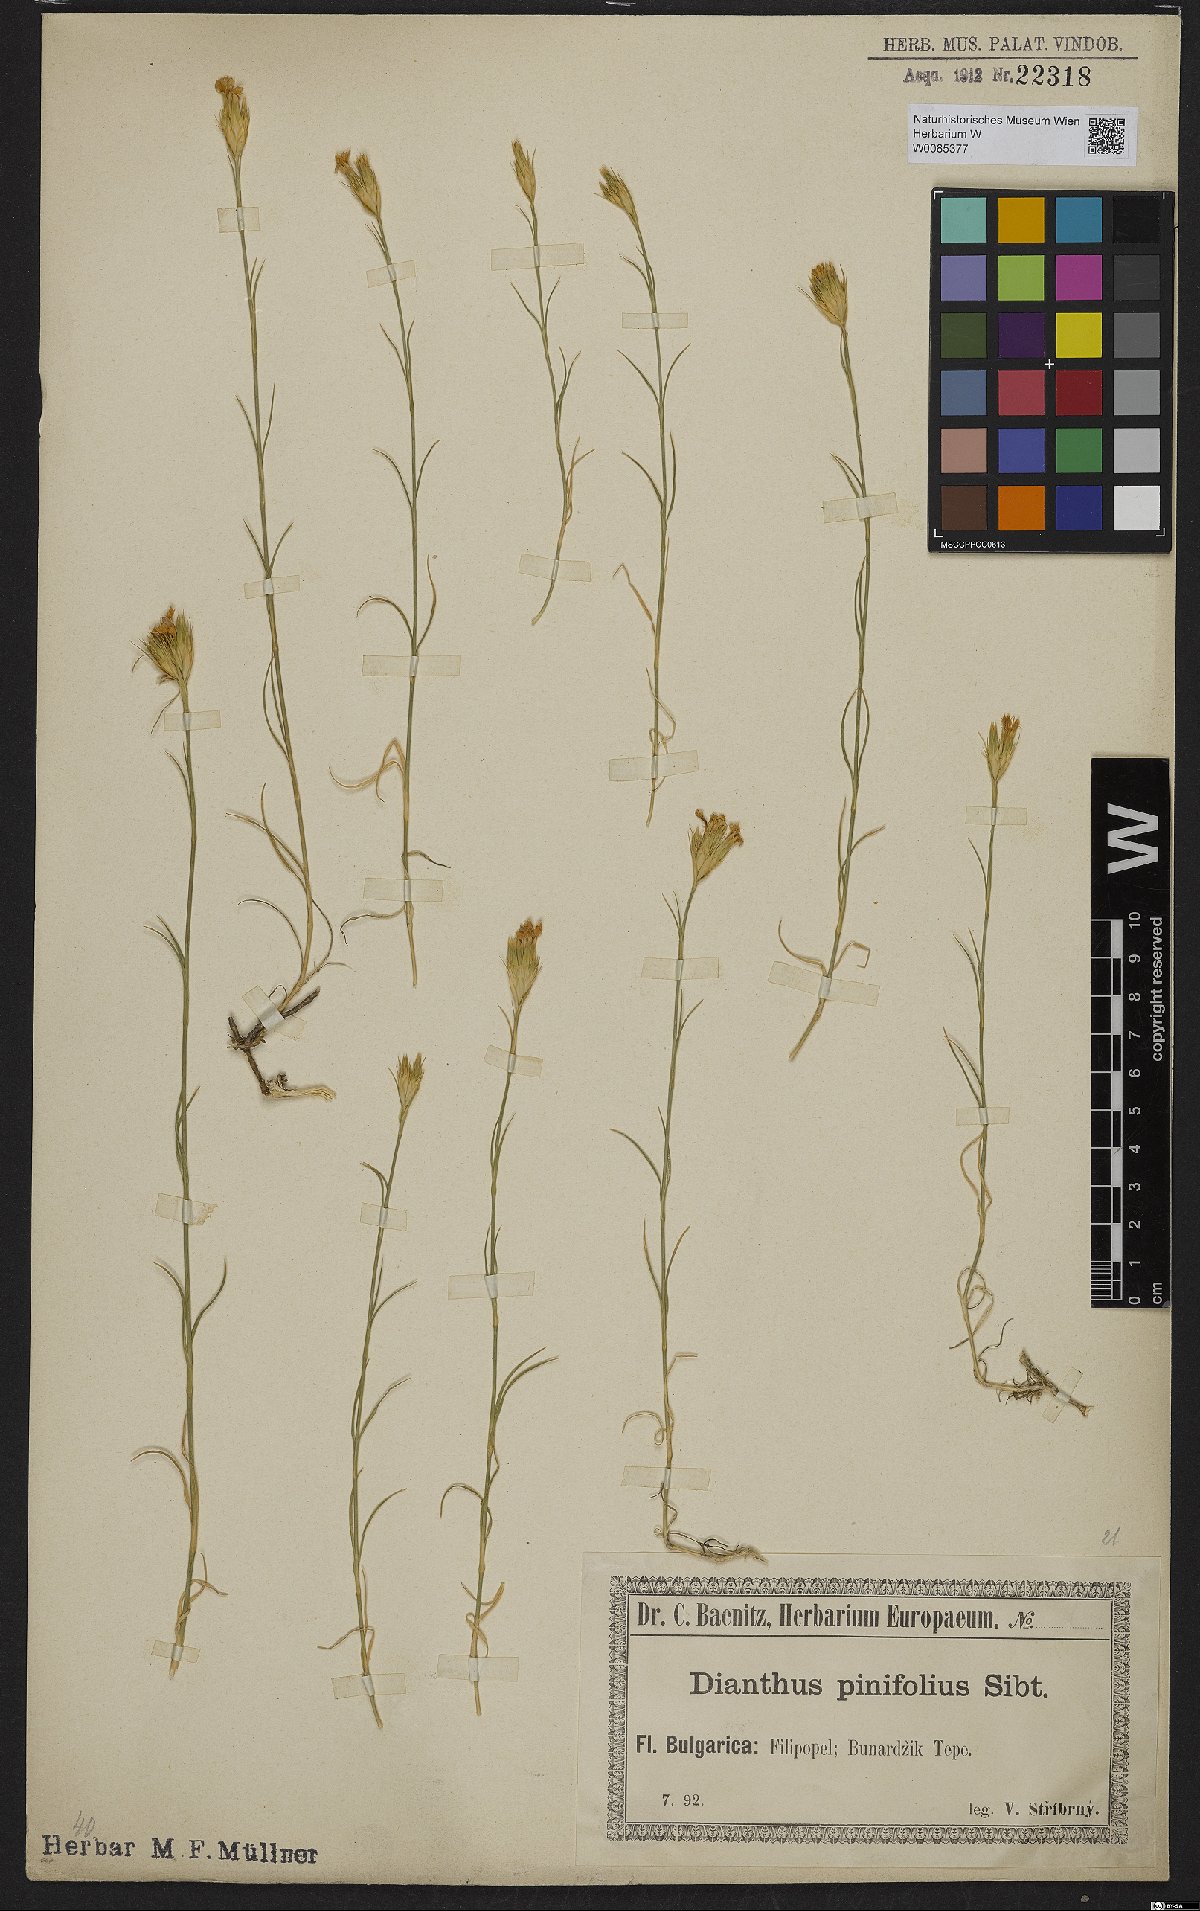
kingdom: Plantae
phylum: Tracheophyta
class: Magnoliopsida
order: Caryophyllales
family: Caryophyllaceae
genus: Dianthus
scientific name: Dianthus pinifolius
